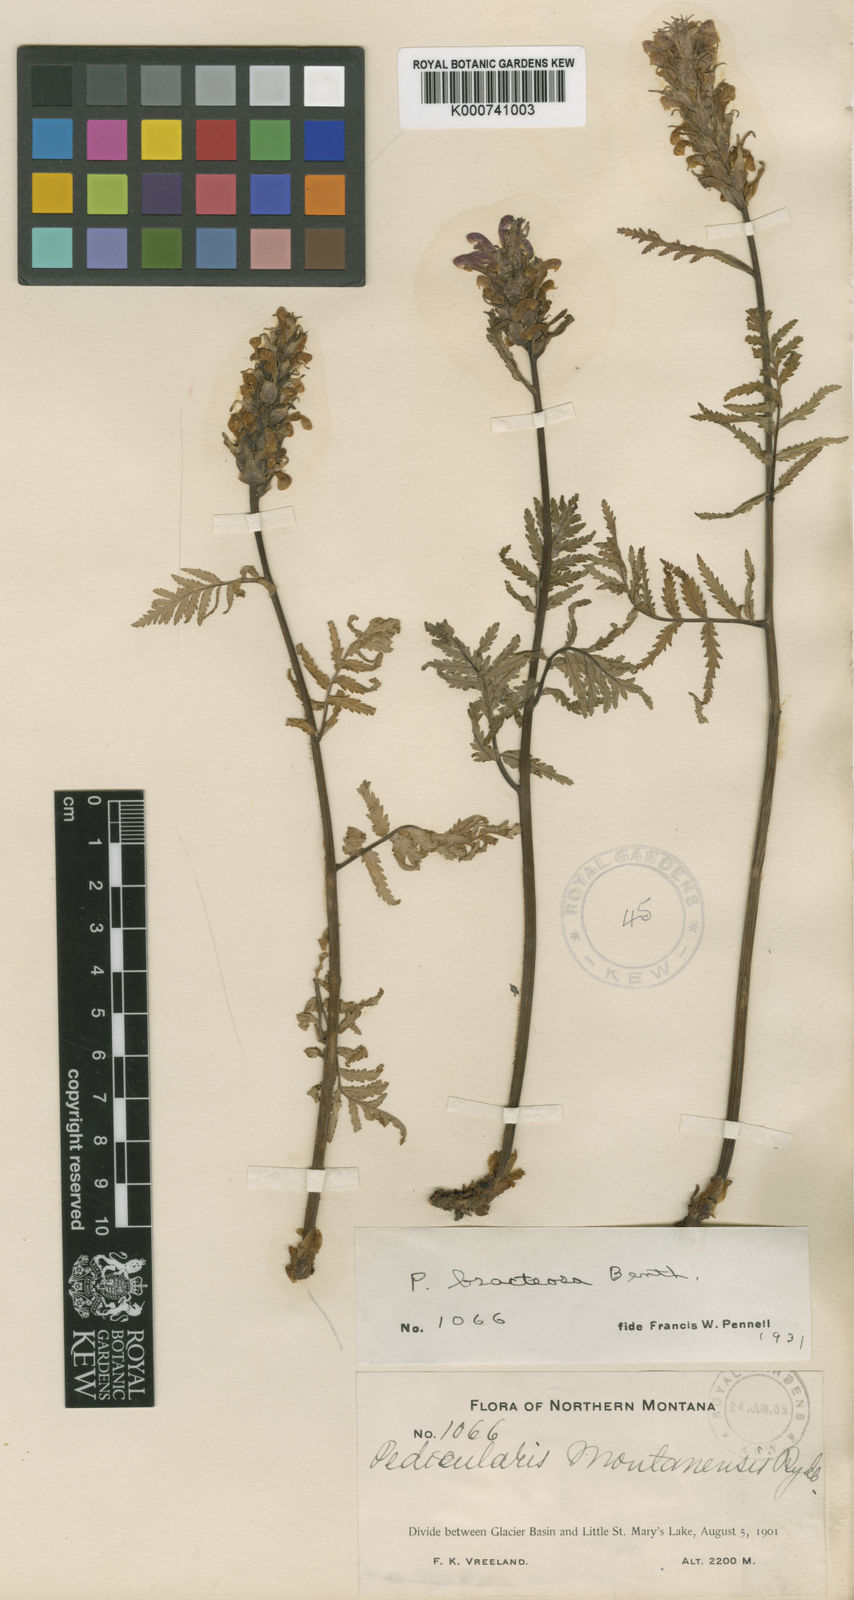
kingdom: Plantae
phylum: Tracheophyta
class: Magnoliopsida
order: Lamiales
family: Orobanchaceae
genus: Pedicularis
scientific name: Pedicularis bracteosa
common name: Bracted lousewort
